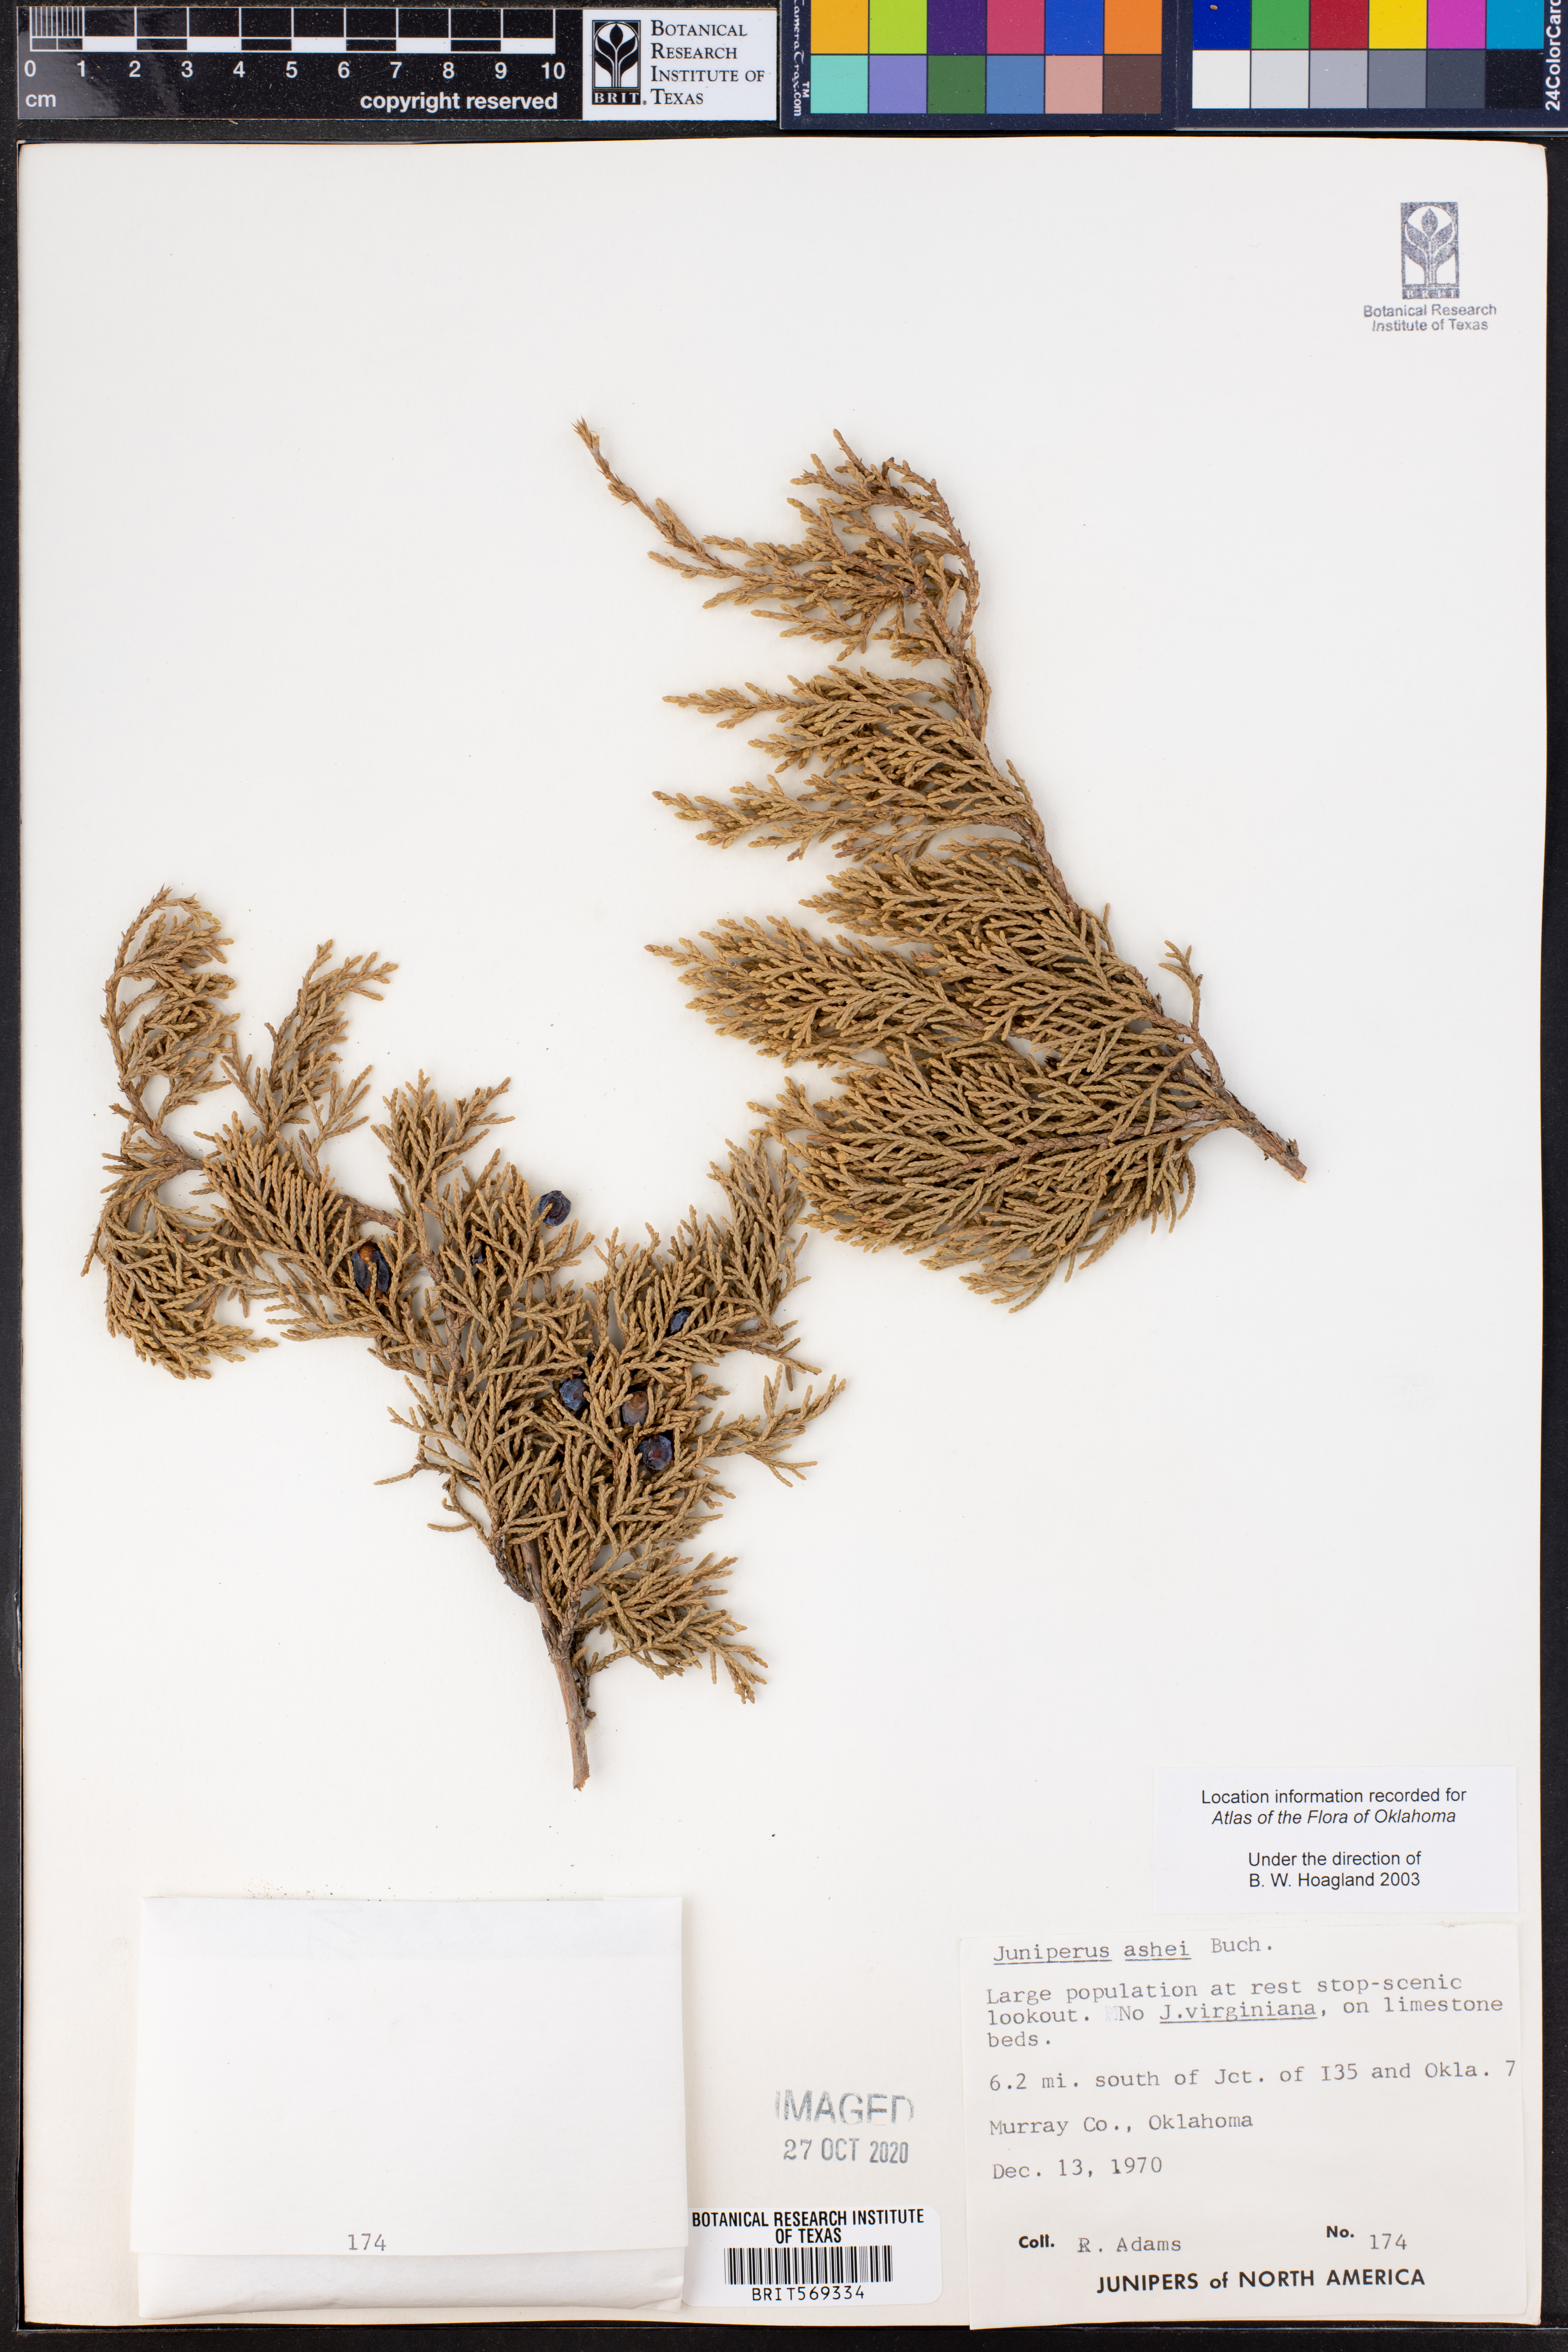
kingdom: Plantae
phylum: Tracheophyta
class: Pinopsida
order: Pinales
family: Cupressaceae
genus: Juniperus
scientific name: Juniperus ashei
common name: Mexican juniper
